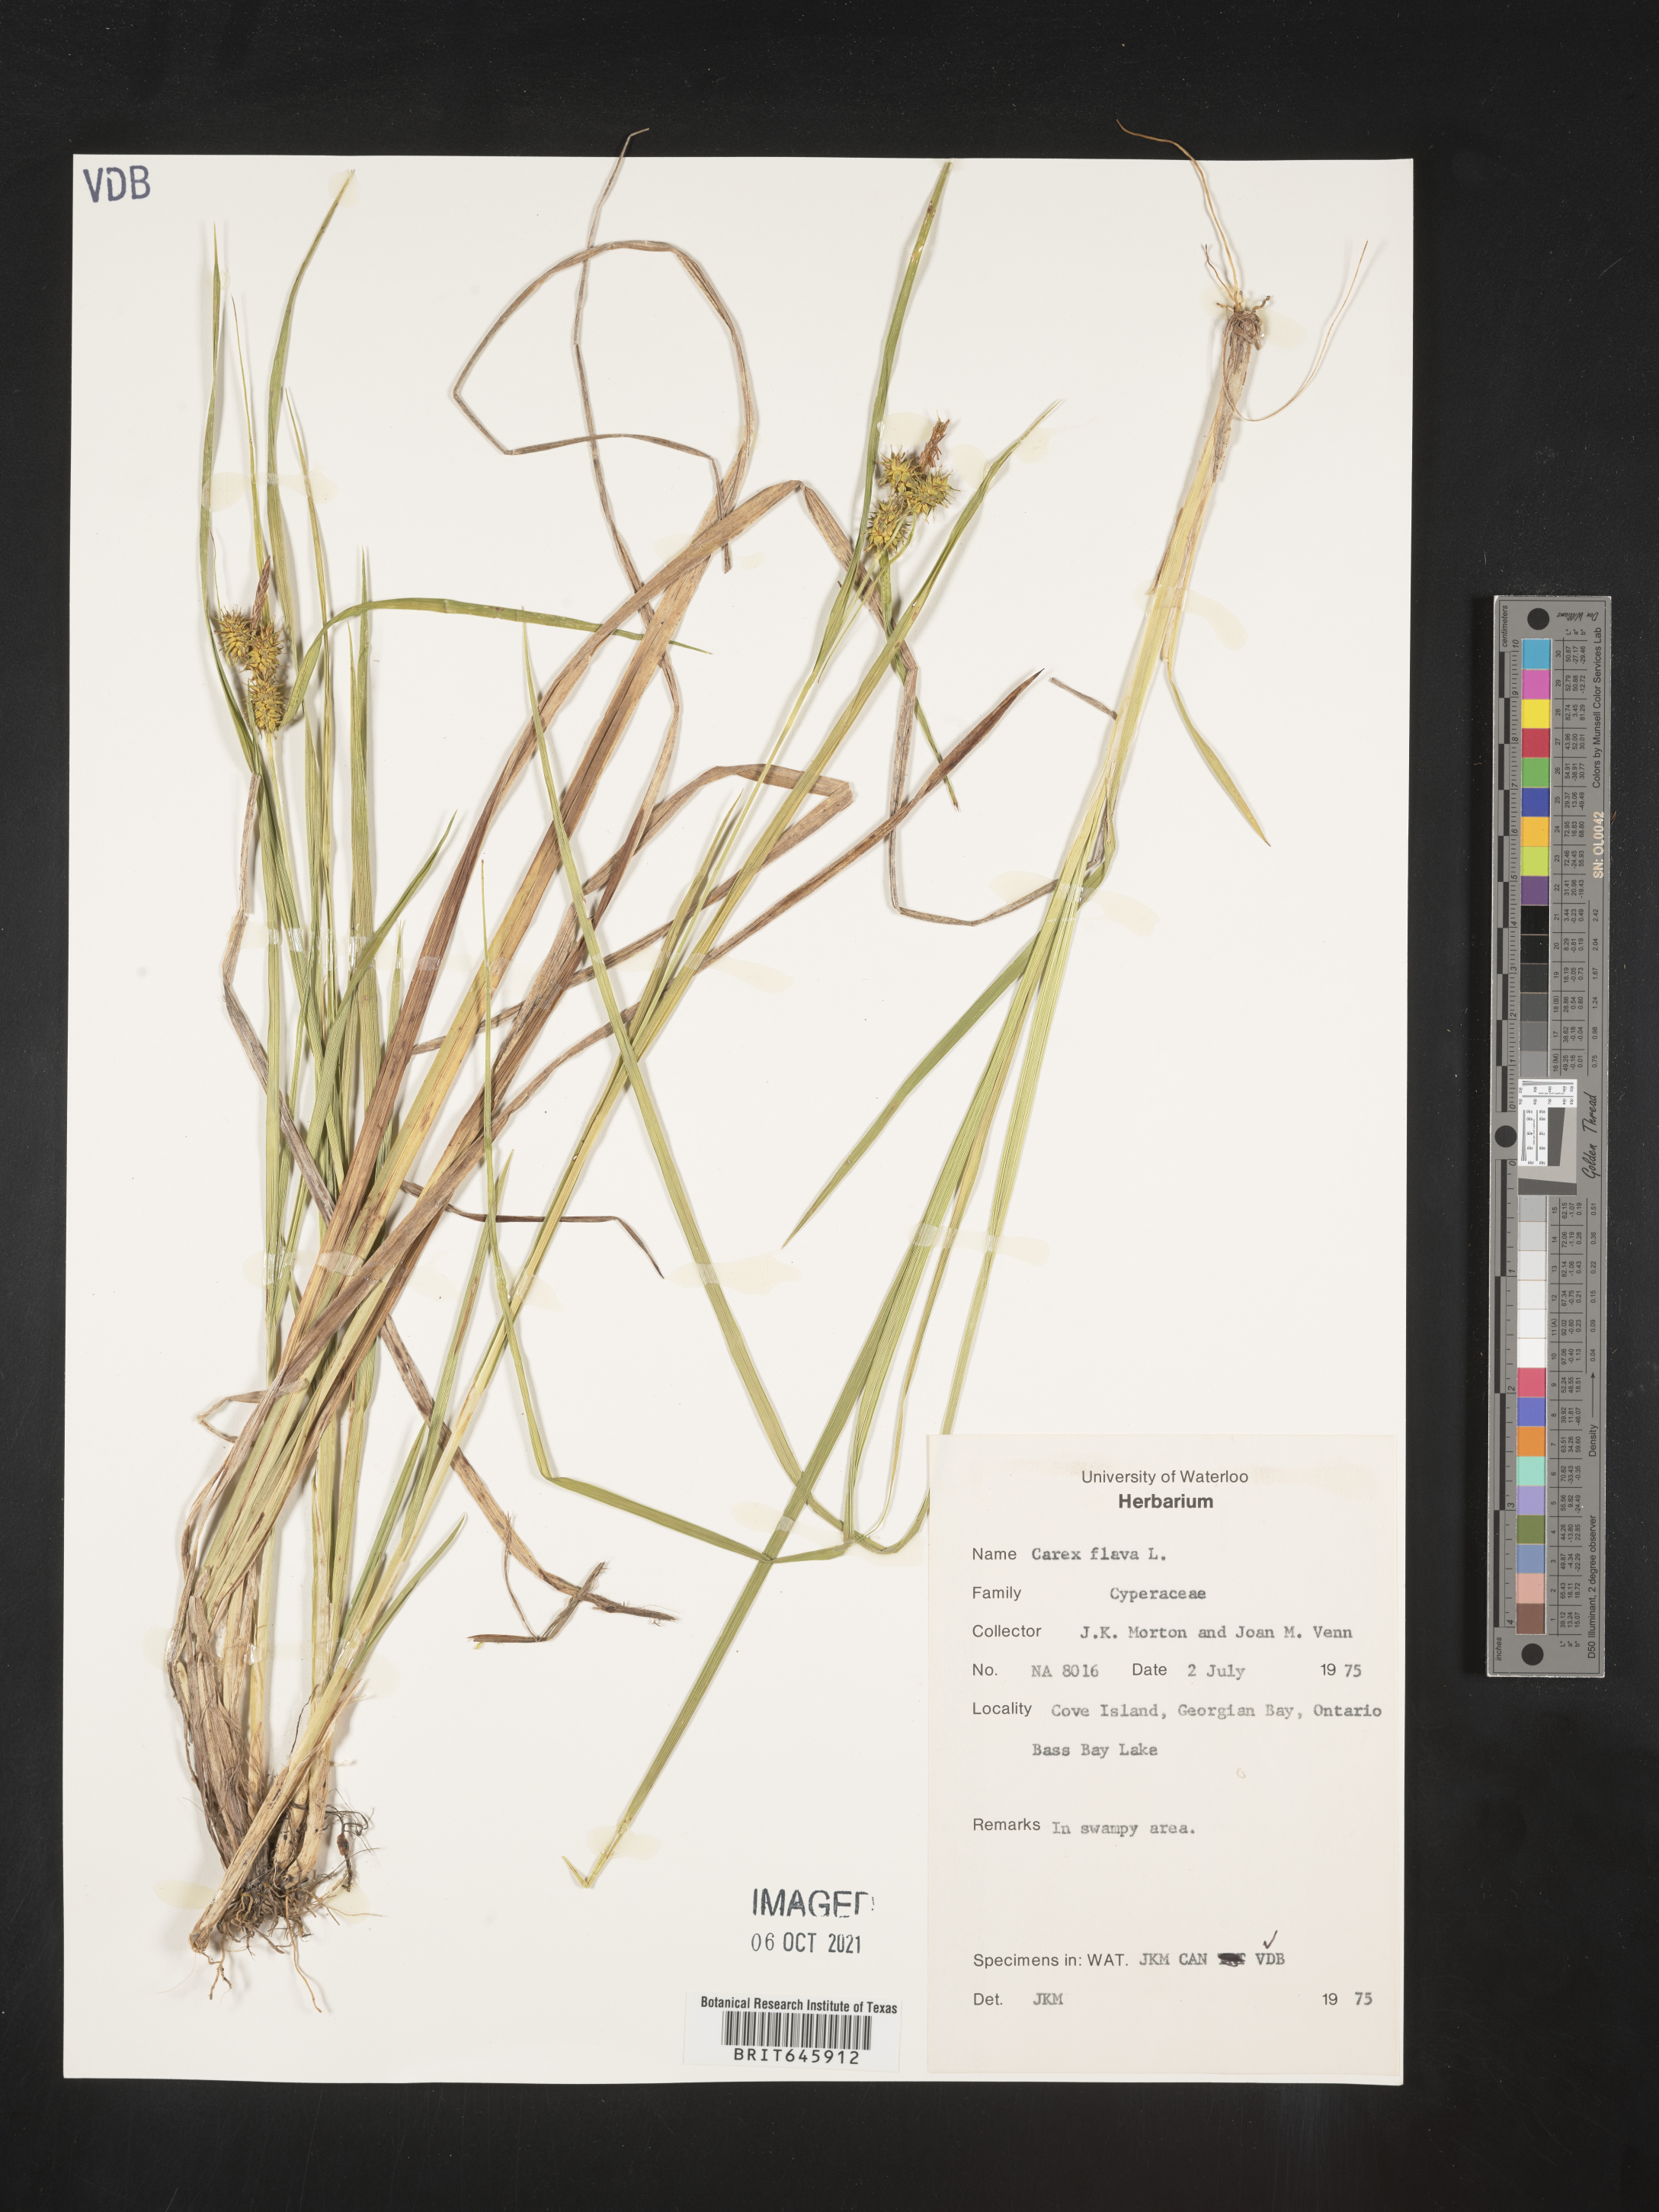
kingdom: Plantae
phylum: Tracheophyta
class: Liliopsida
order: Poales
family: Cyperaceae
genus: Carex
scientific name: Carex flava
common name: Large yellow-sedge
